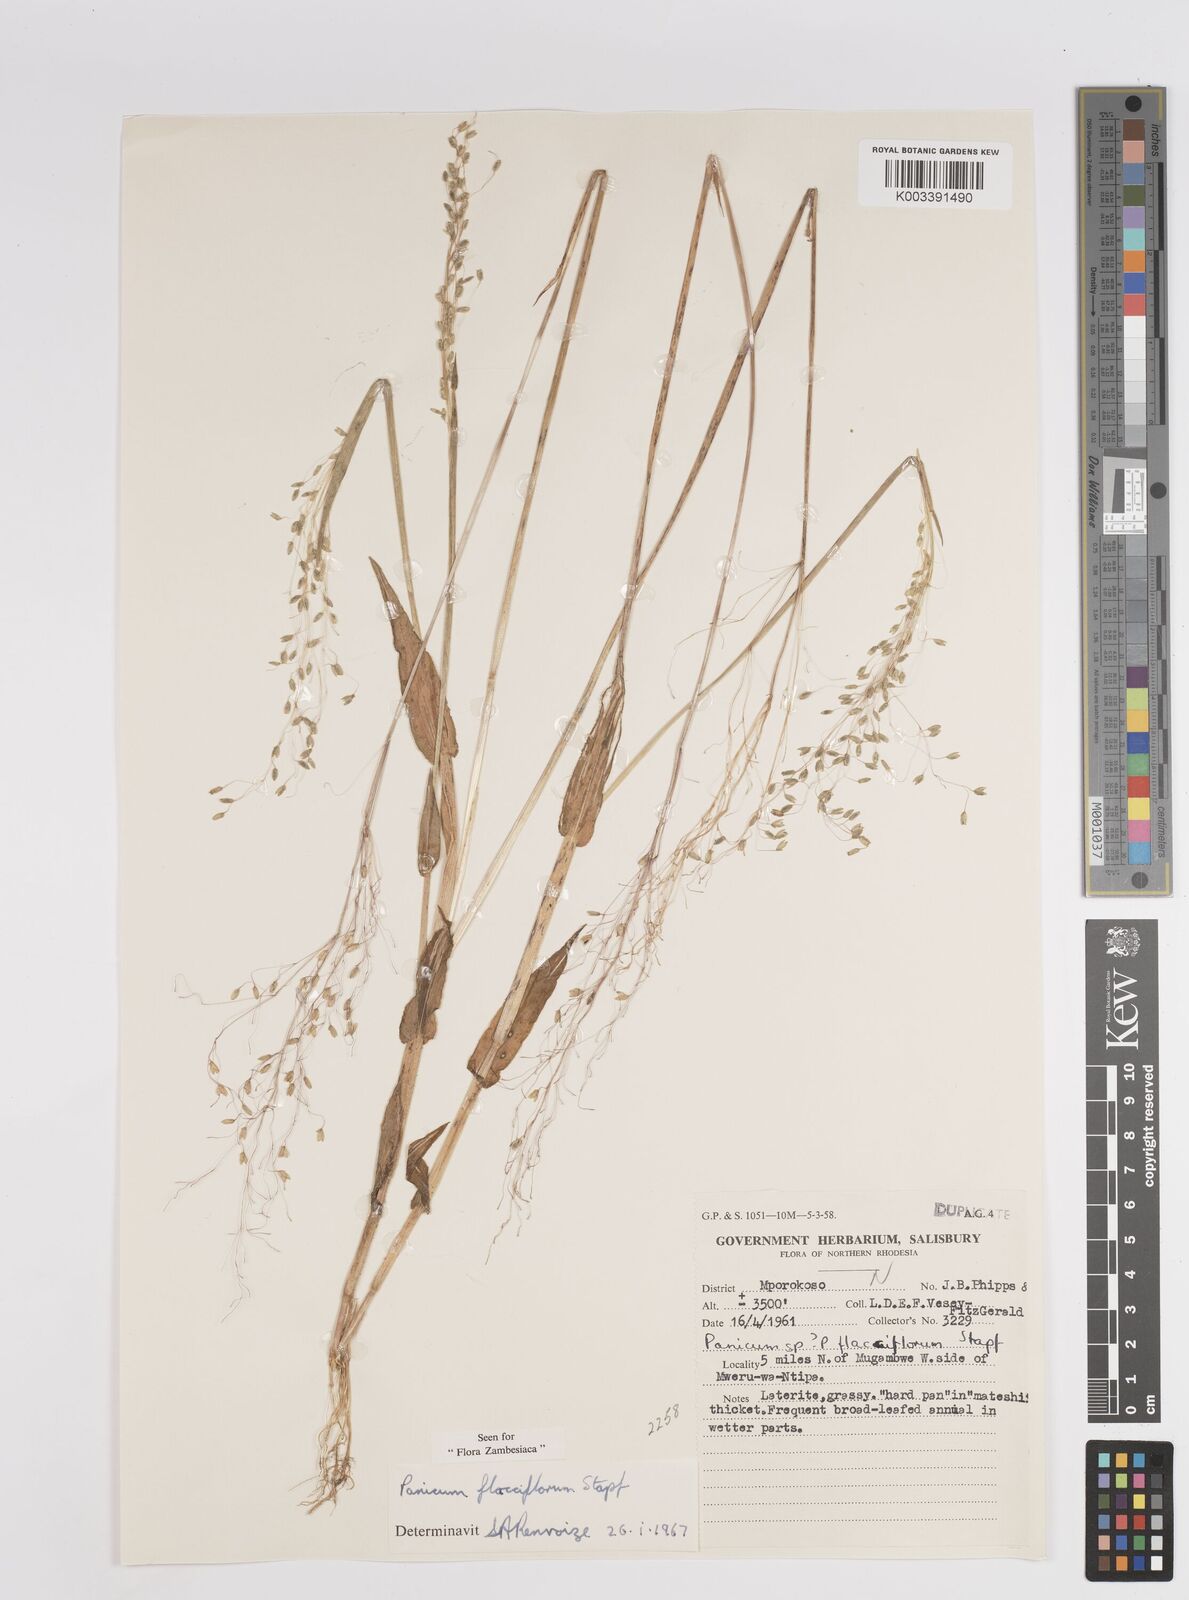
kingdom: Plantae
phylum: Tracheophyta
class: Liliopsida
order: Poales
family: Poaceae
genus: Adenochloa
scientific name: Adenochloa flacciflora
